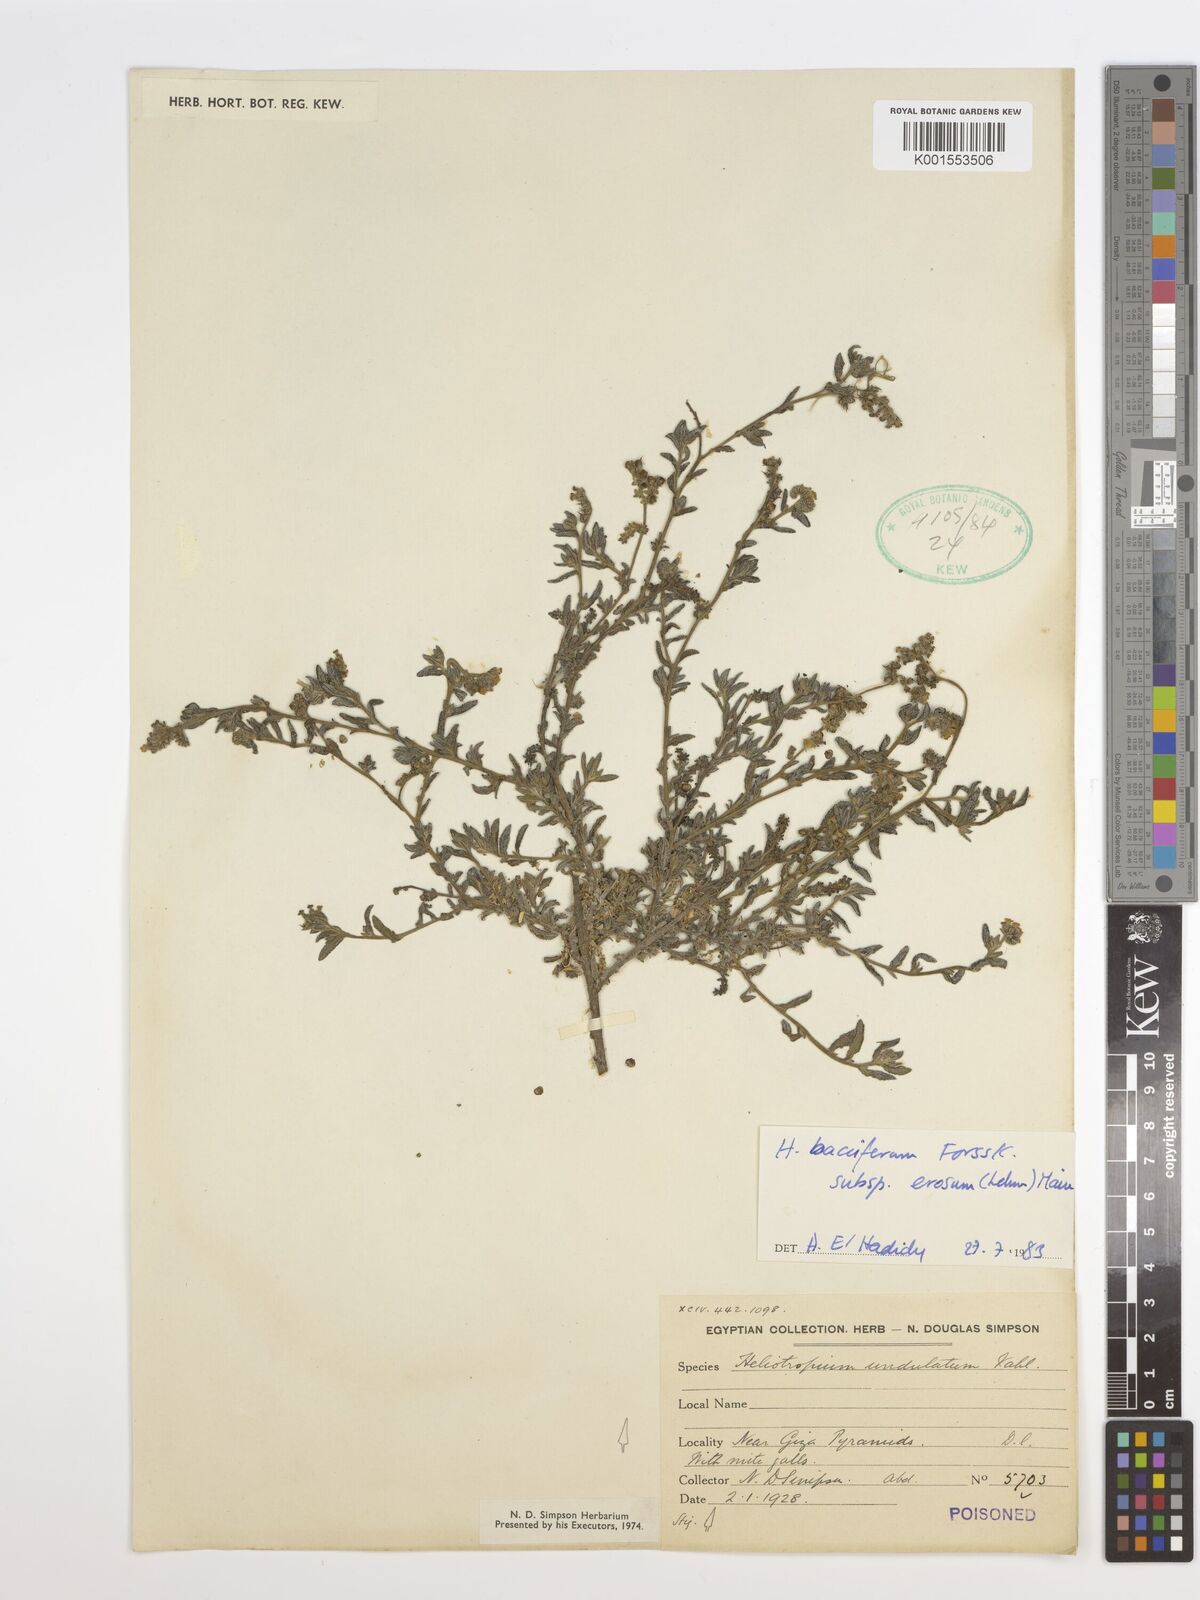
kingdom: Plantae
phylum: Tracheophyta
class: Magnoliopsida
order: Boraginales
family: Heliotropiaceae
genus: Heliotropium
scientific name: Heliotropium crispum
